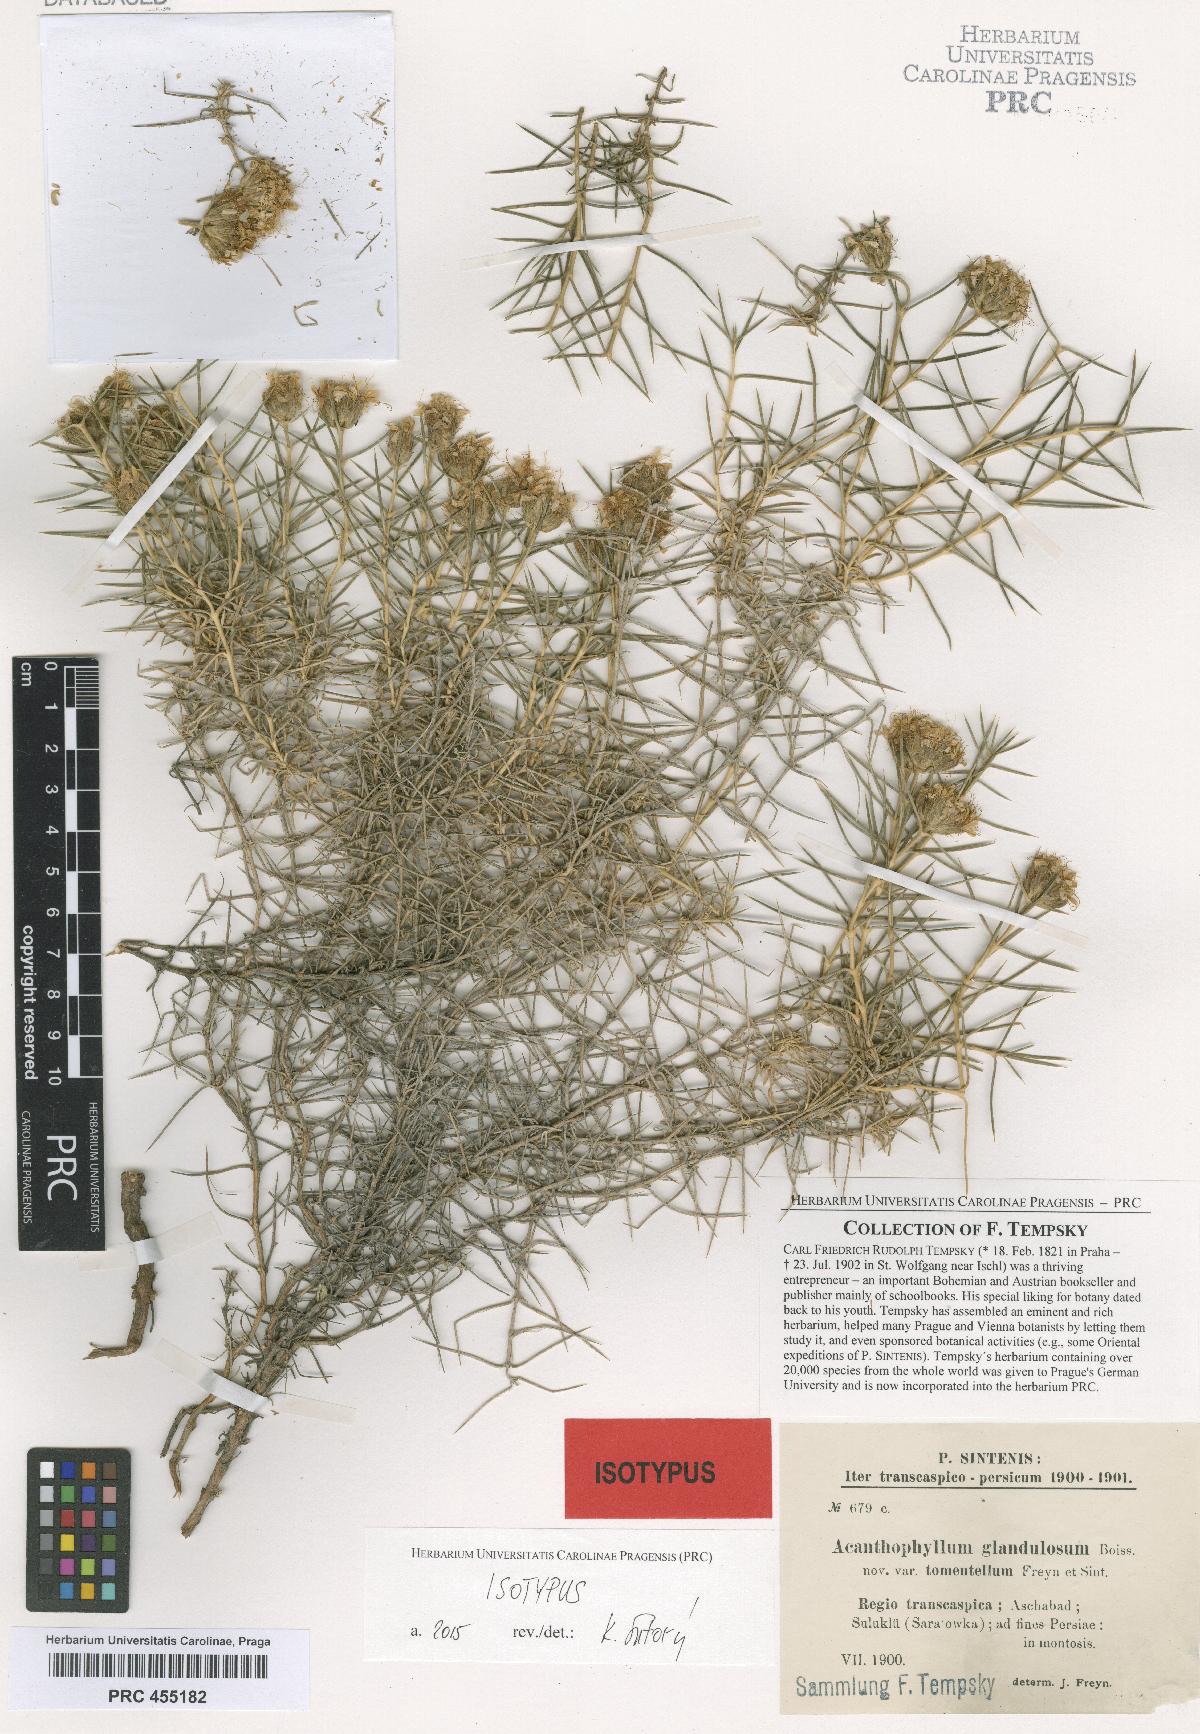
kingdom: Plantae
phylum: Tracheophyta
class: Magnoliopsida
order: Caryophyllales
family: Caryophyllaceae
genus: Acanthophyllum
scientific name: Acanthophyllum glandulosum
